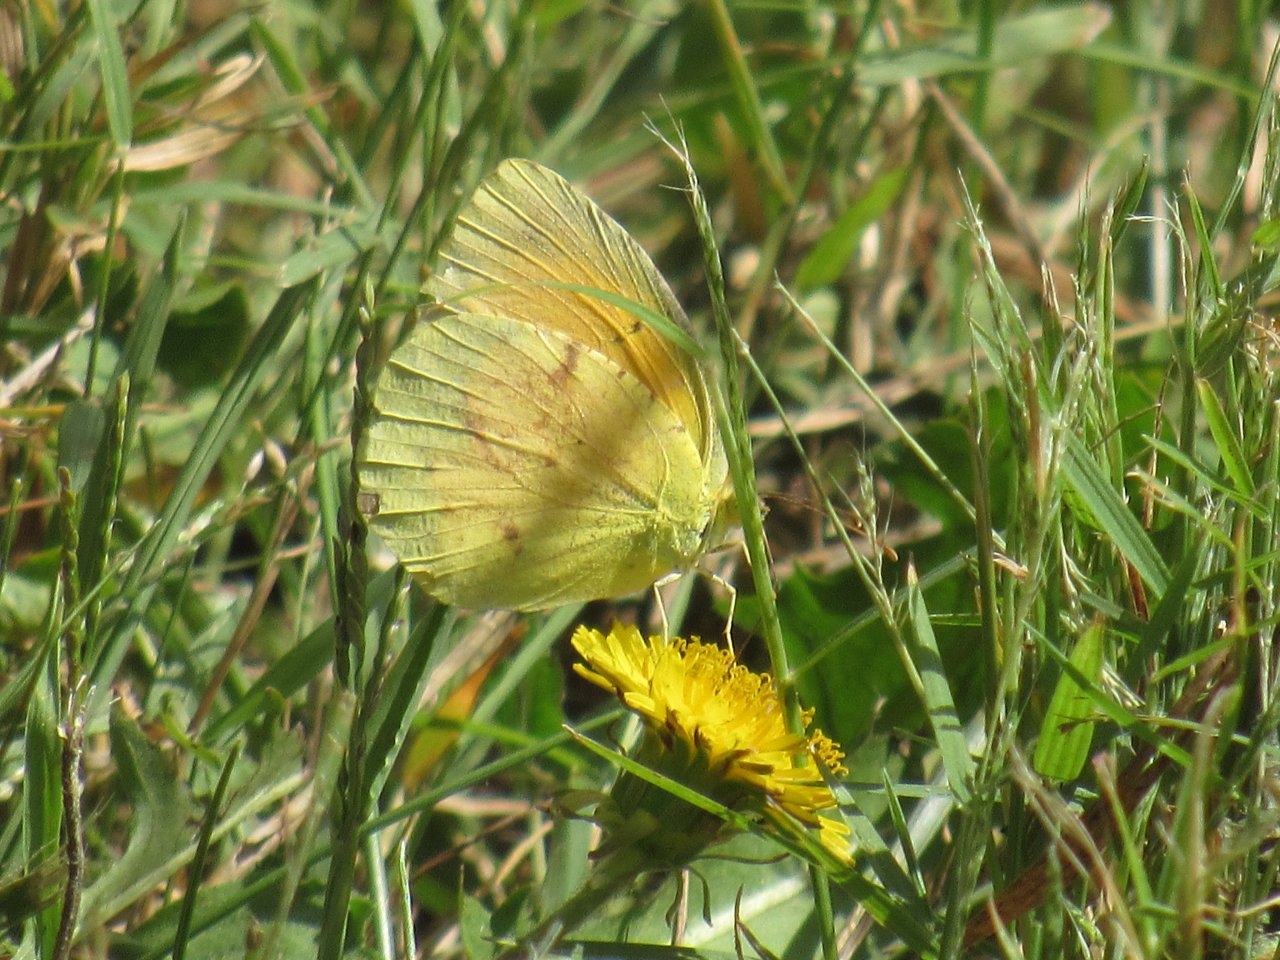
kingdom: Animalia
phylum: Arthropoda
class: Insecta
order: Lepidoptera
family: Pieridae
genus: Abaeis
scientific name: Abaeis nicippe
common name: Sleepy Orange
